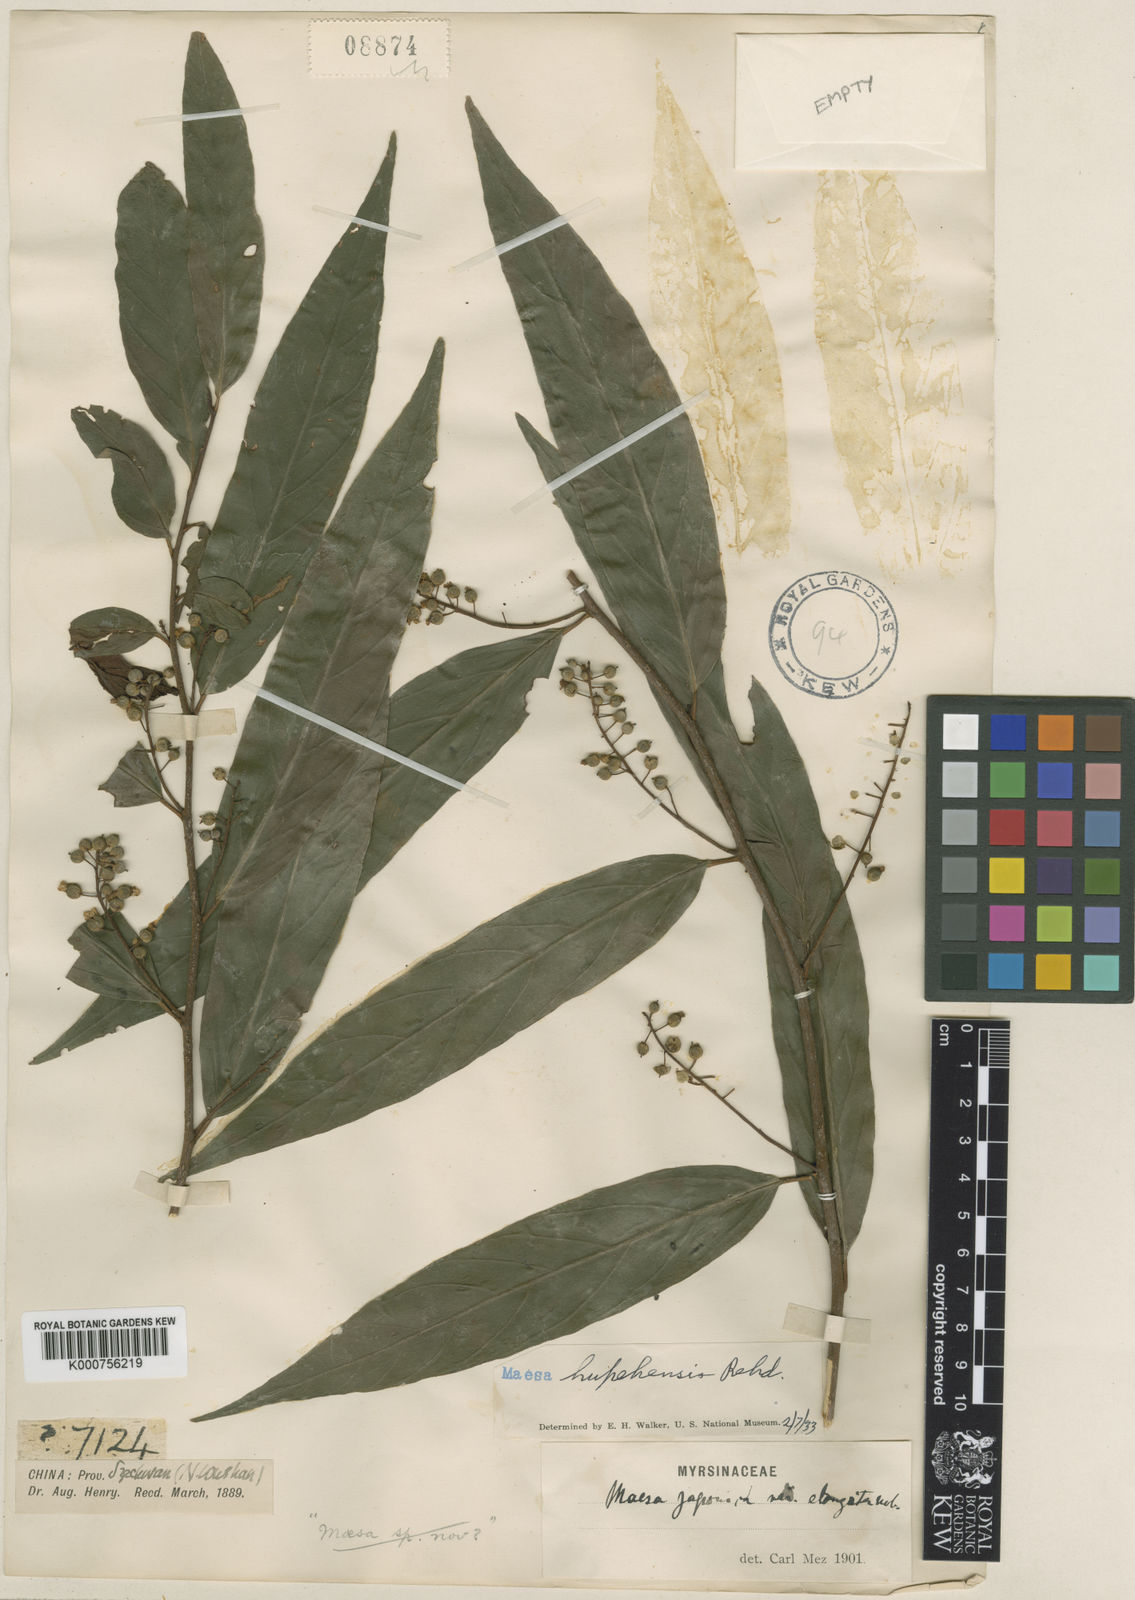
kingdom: Plantae
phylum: Tracheophyta
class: Magnoliopsida
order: Ericales
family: Primulaceae
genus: Maesa
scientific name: Maesa hupehensis
